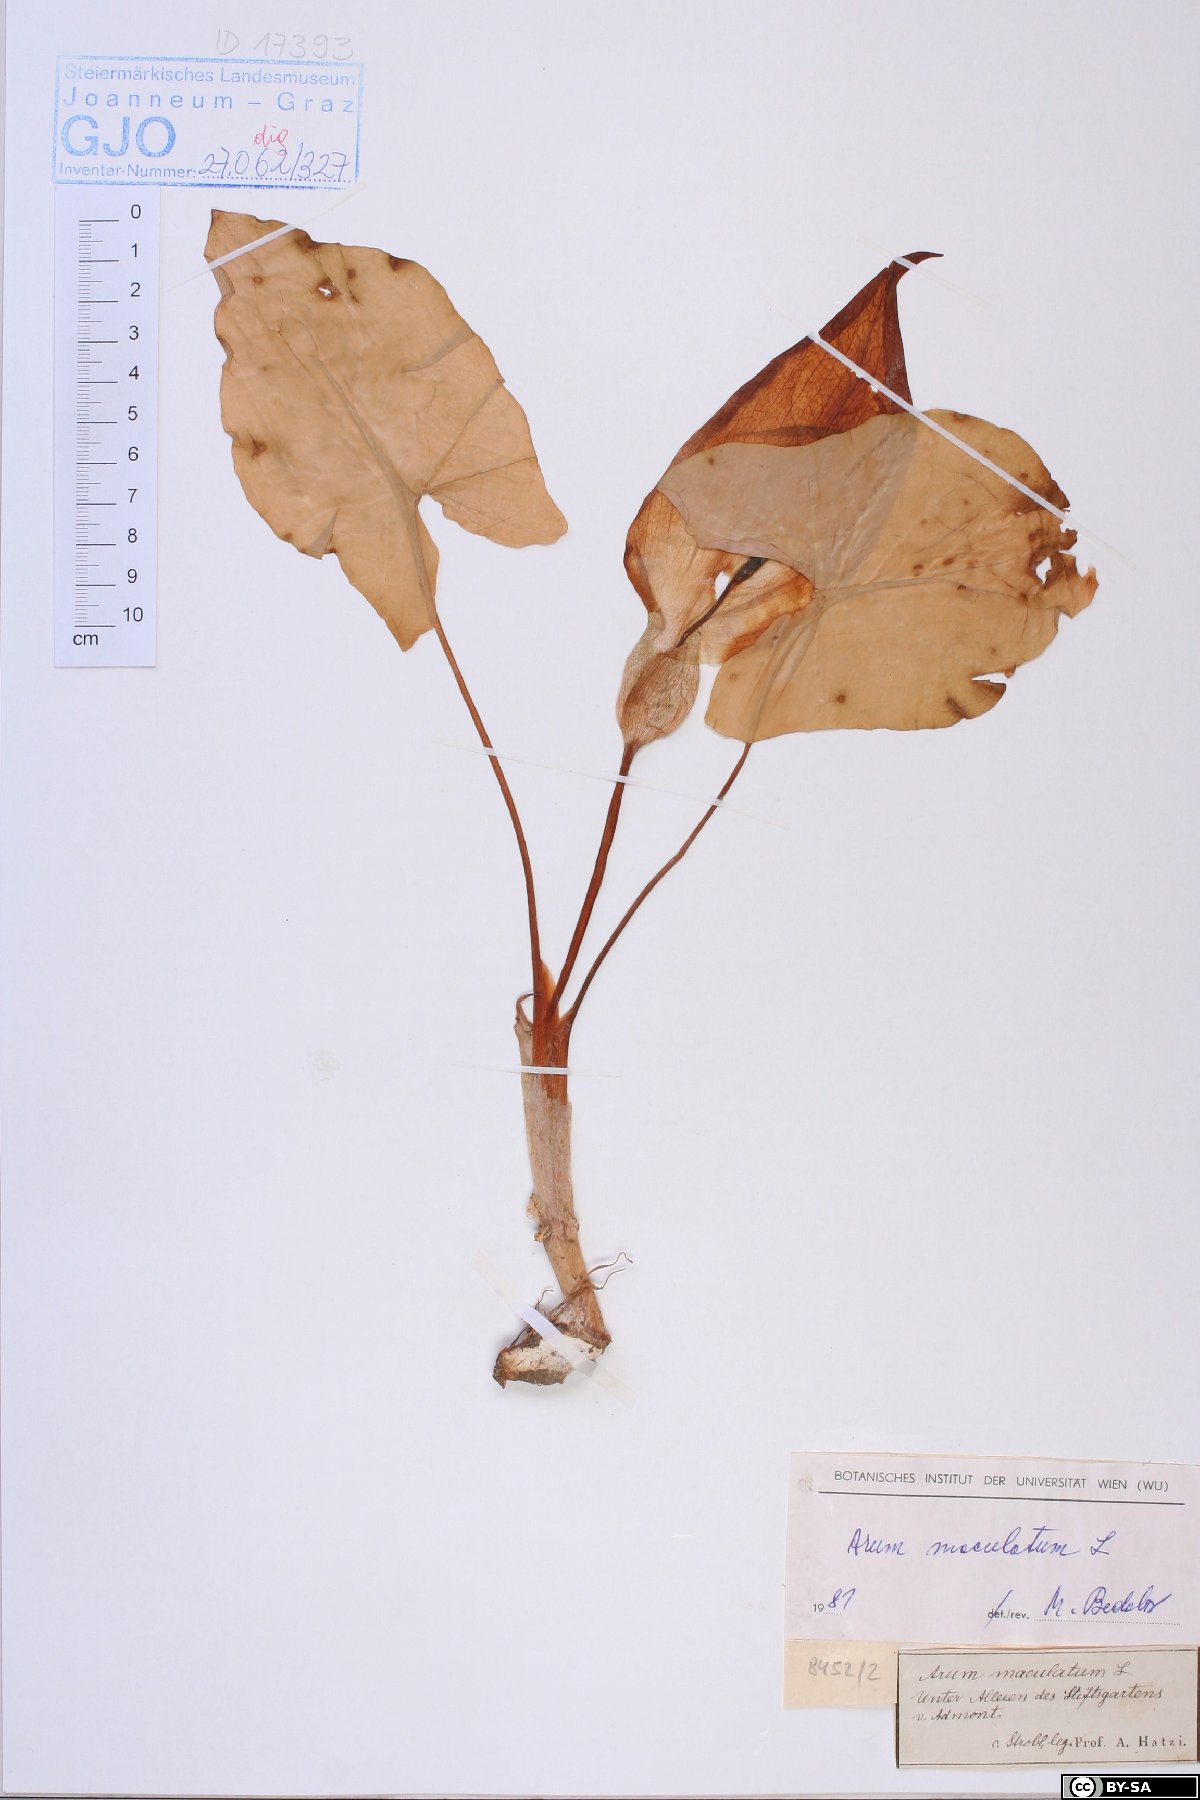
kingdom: Plantae
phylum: Tracheophyta
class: Liliopsida
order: Alismatales
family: Araceae
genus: Arum
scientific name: Arum maculatum
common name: Lords-and-ladies
